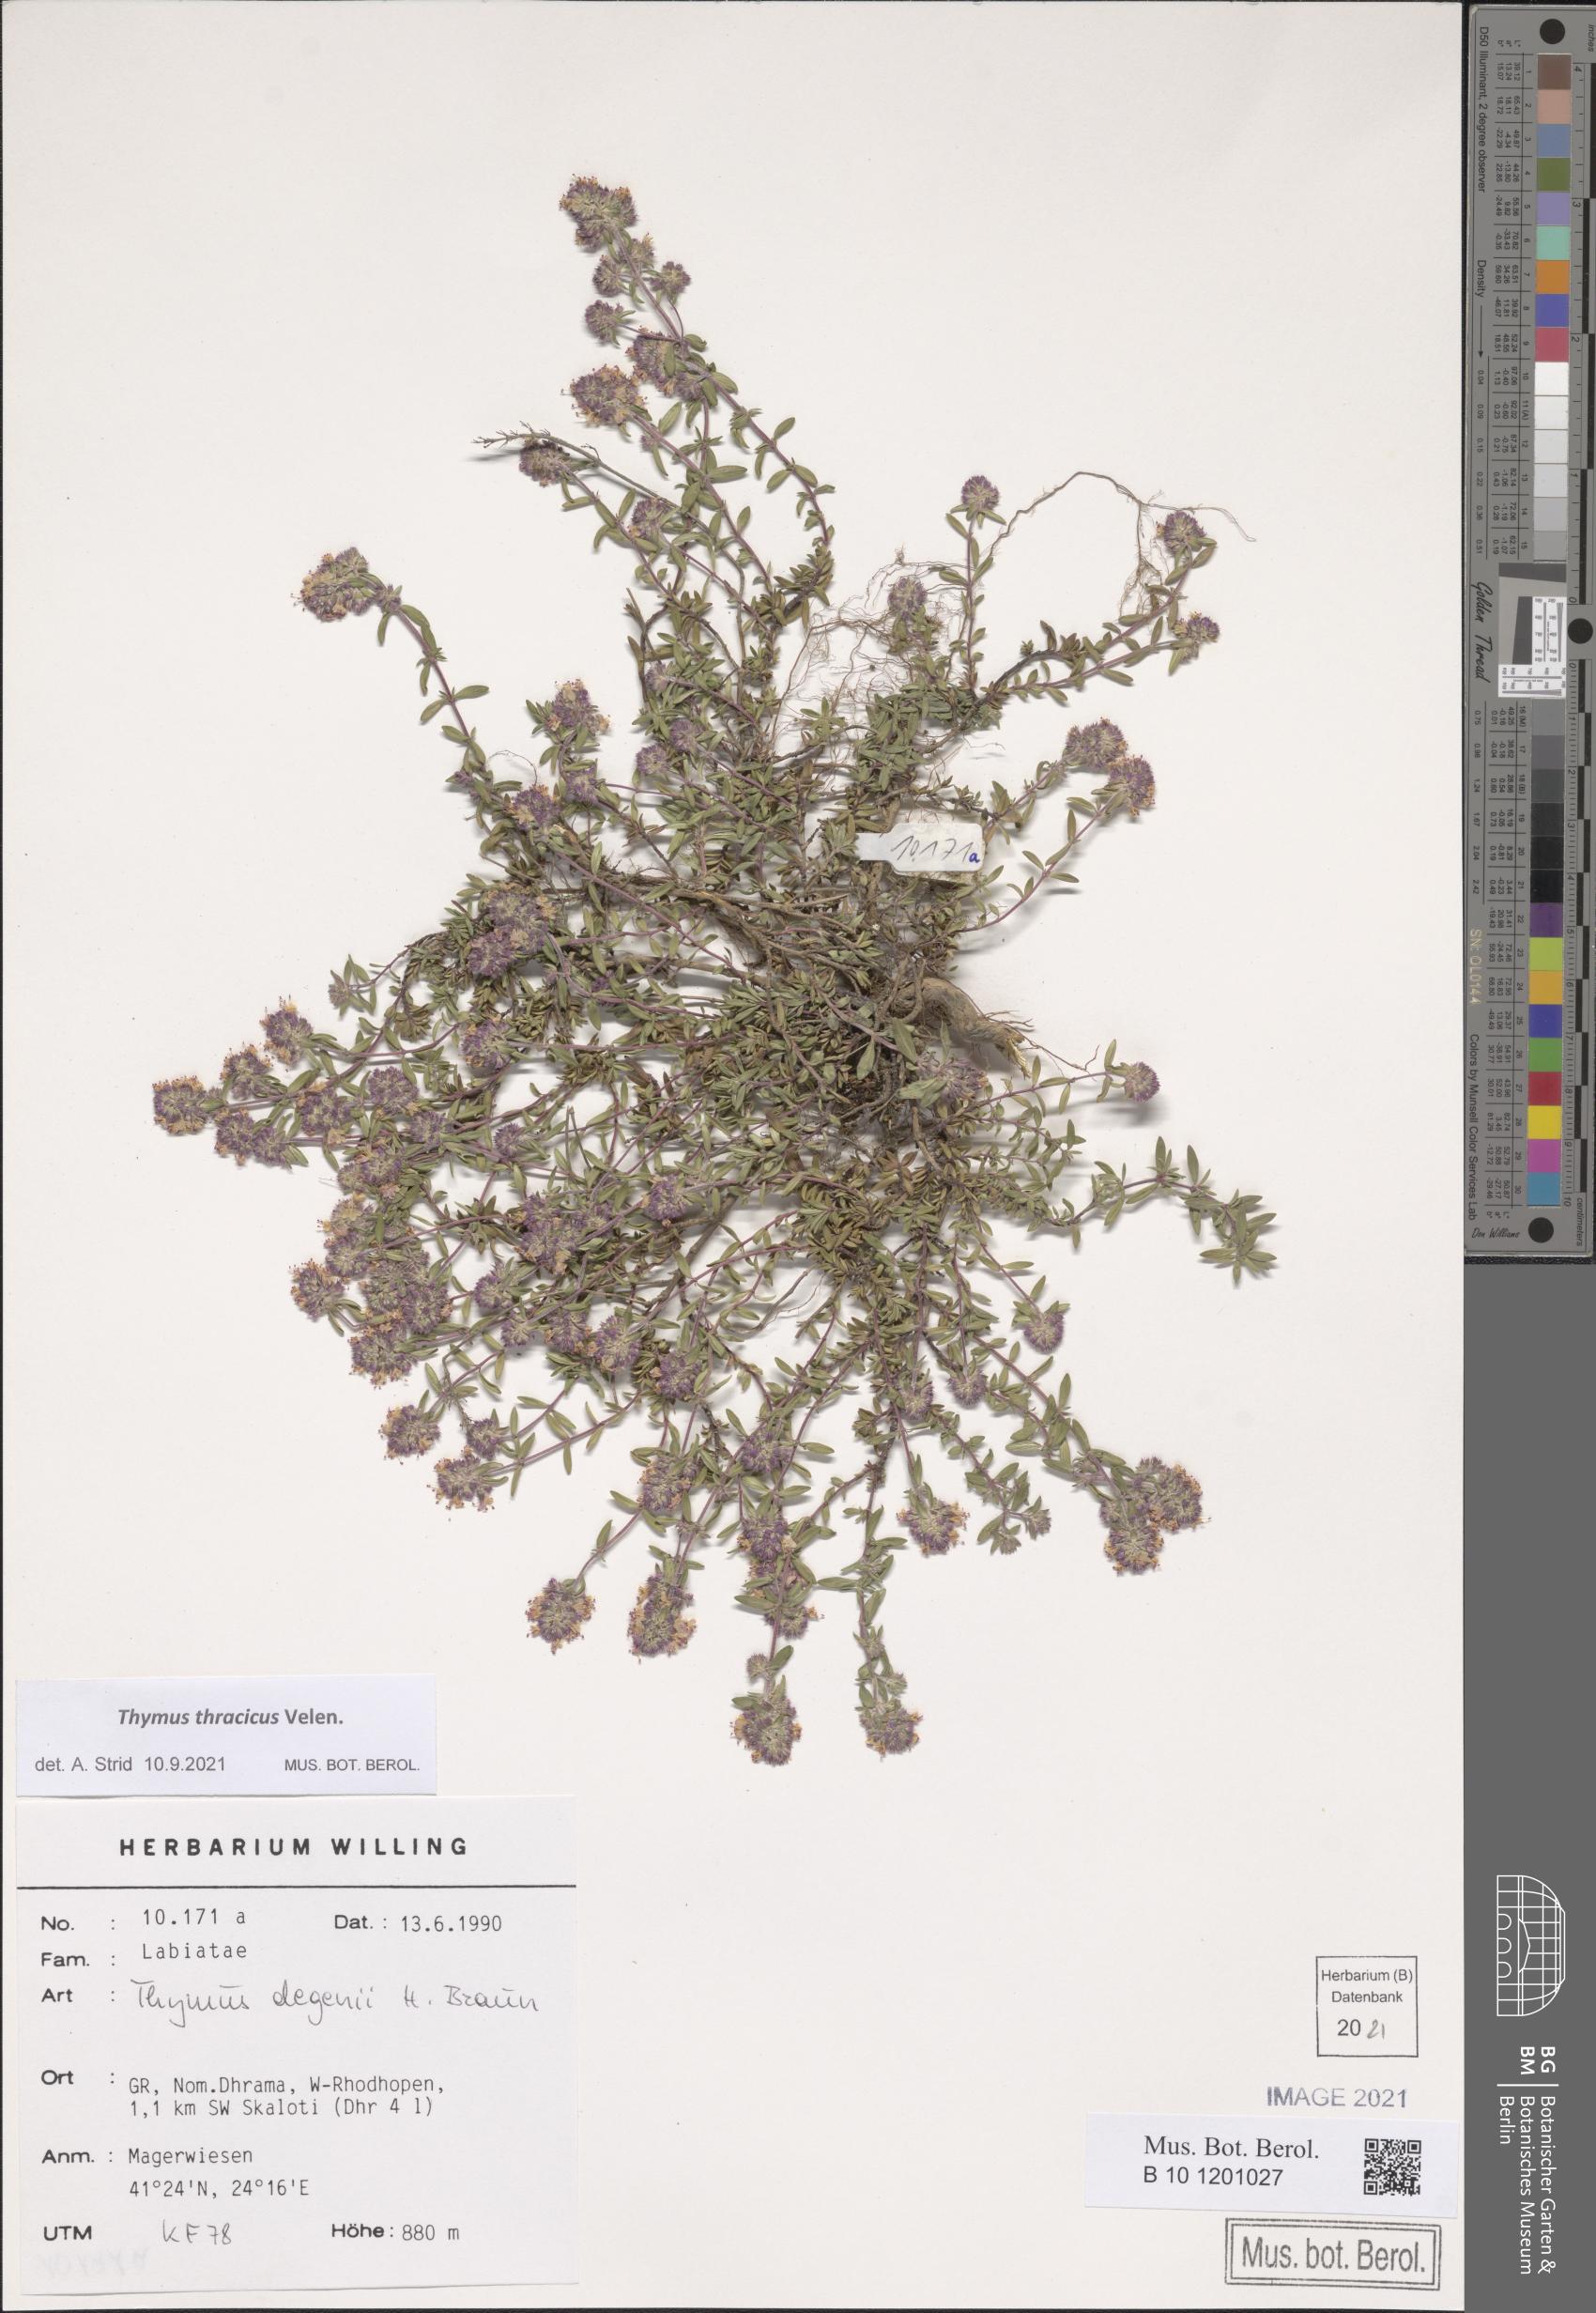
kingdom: Plantae
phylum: Tracheophyta
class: Magnoliopsida
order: Lamiales
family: Lamiaceae
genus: Thymus
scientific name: Thymus thracicus
